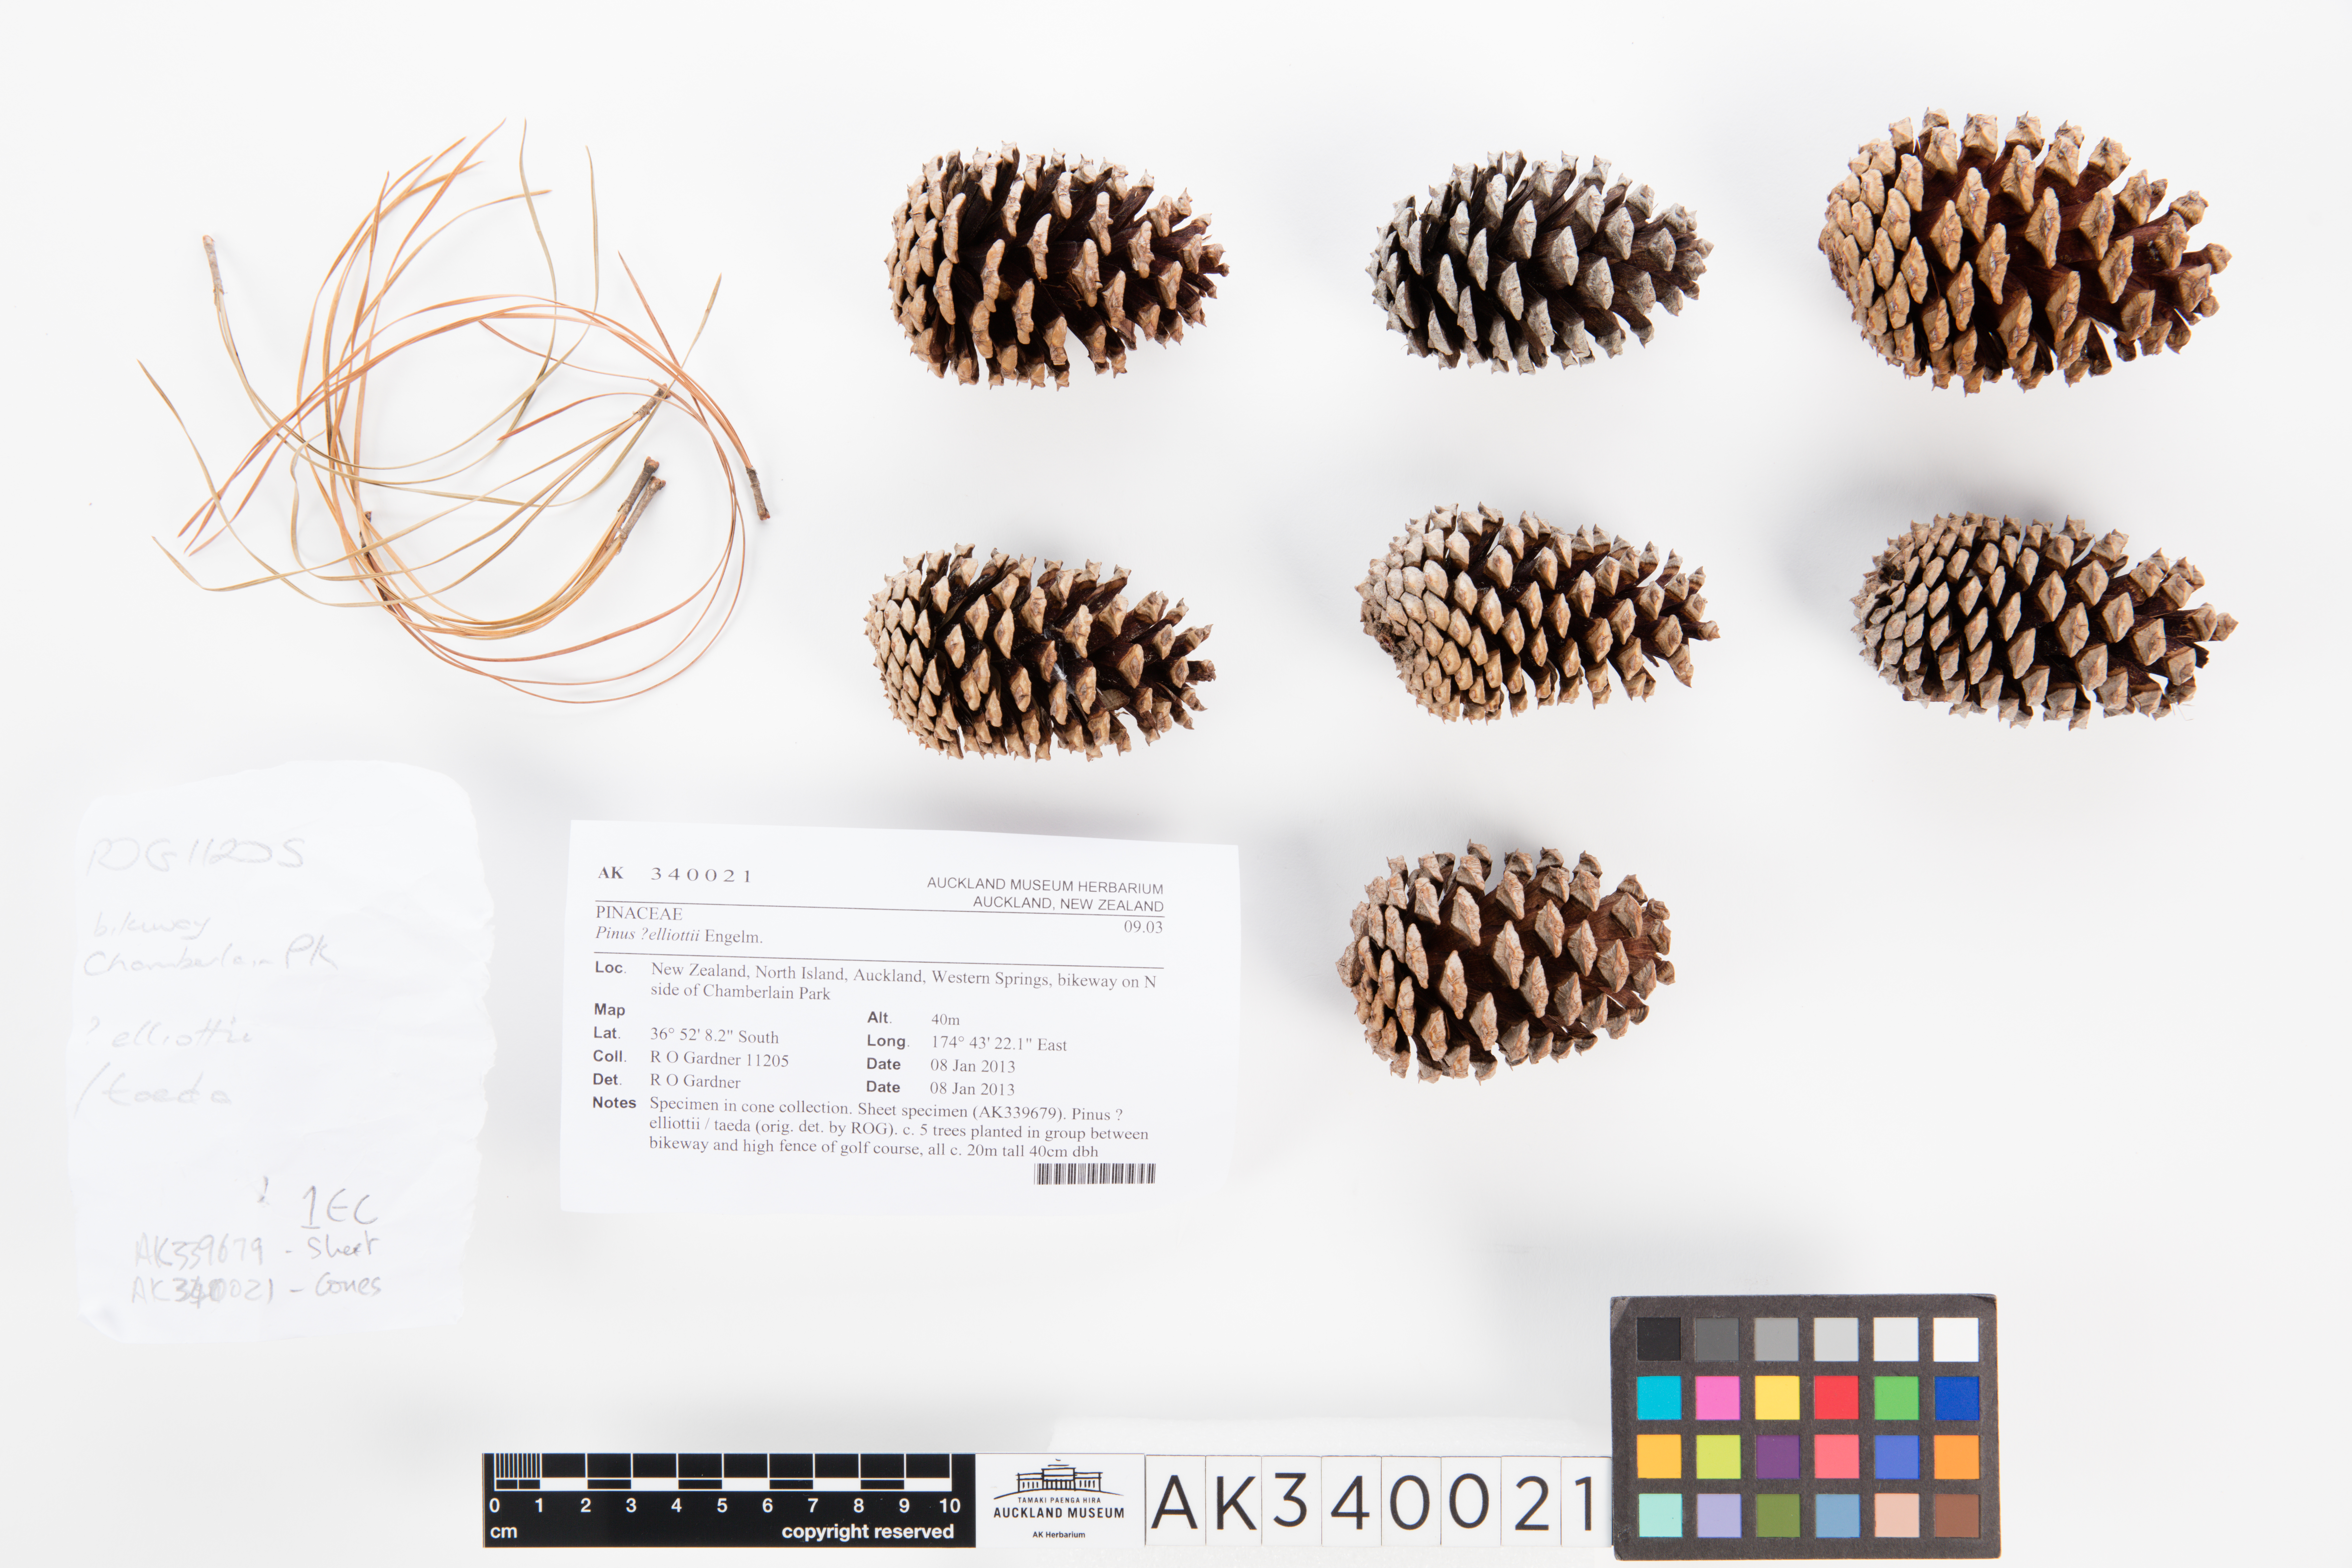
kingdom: Plantae
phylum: Tracheophyta
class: Pinopsida
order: Pinales
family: Pinaceae
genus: Pinus
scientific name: Pinus elliottii
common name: Slash pine
